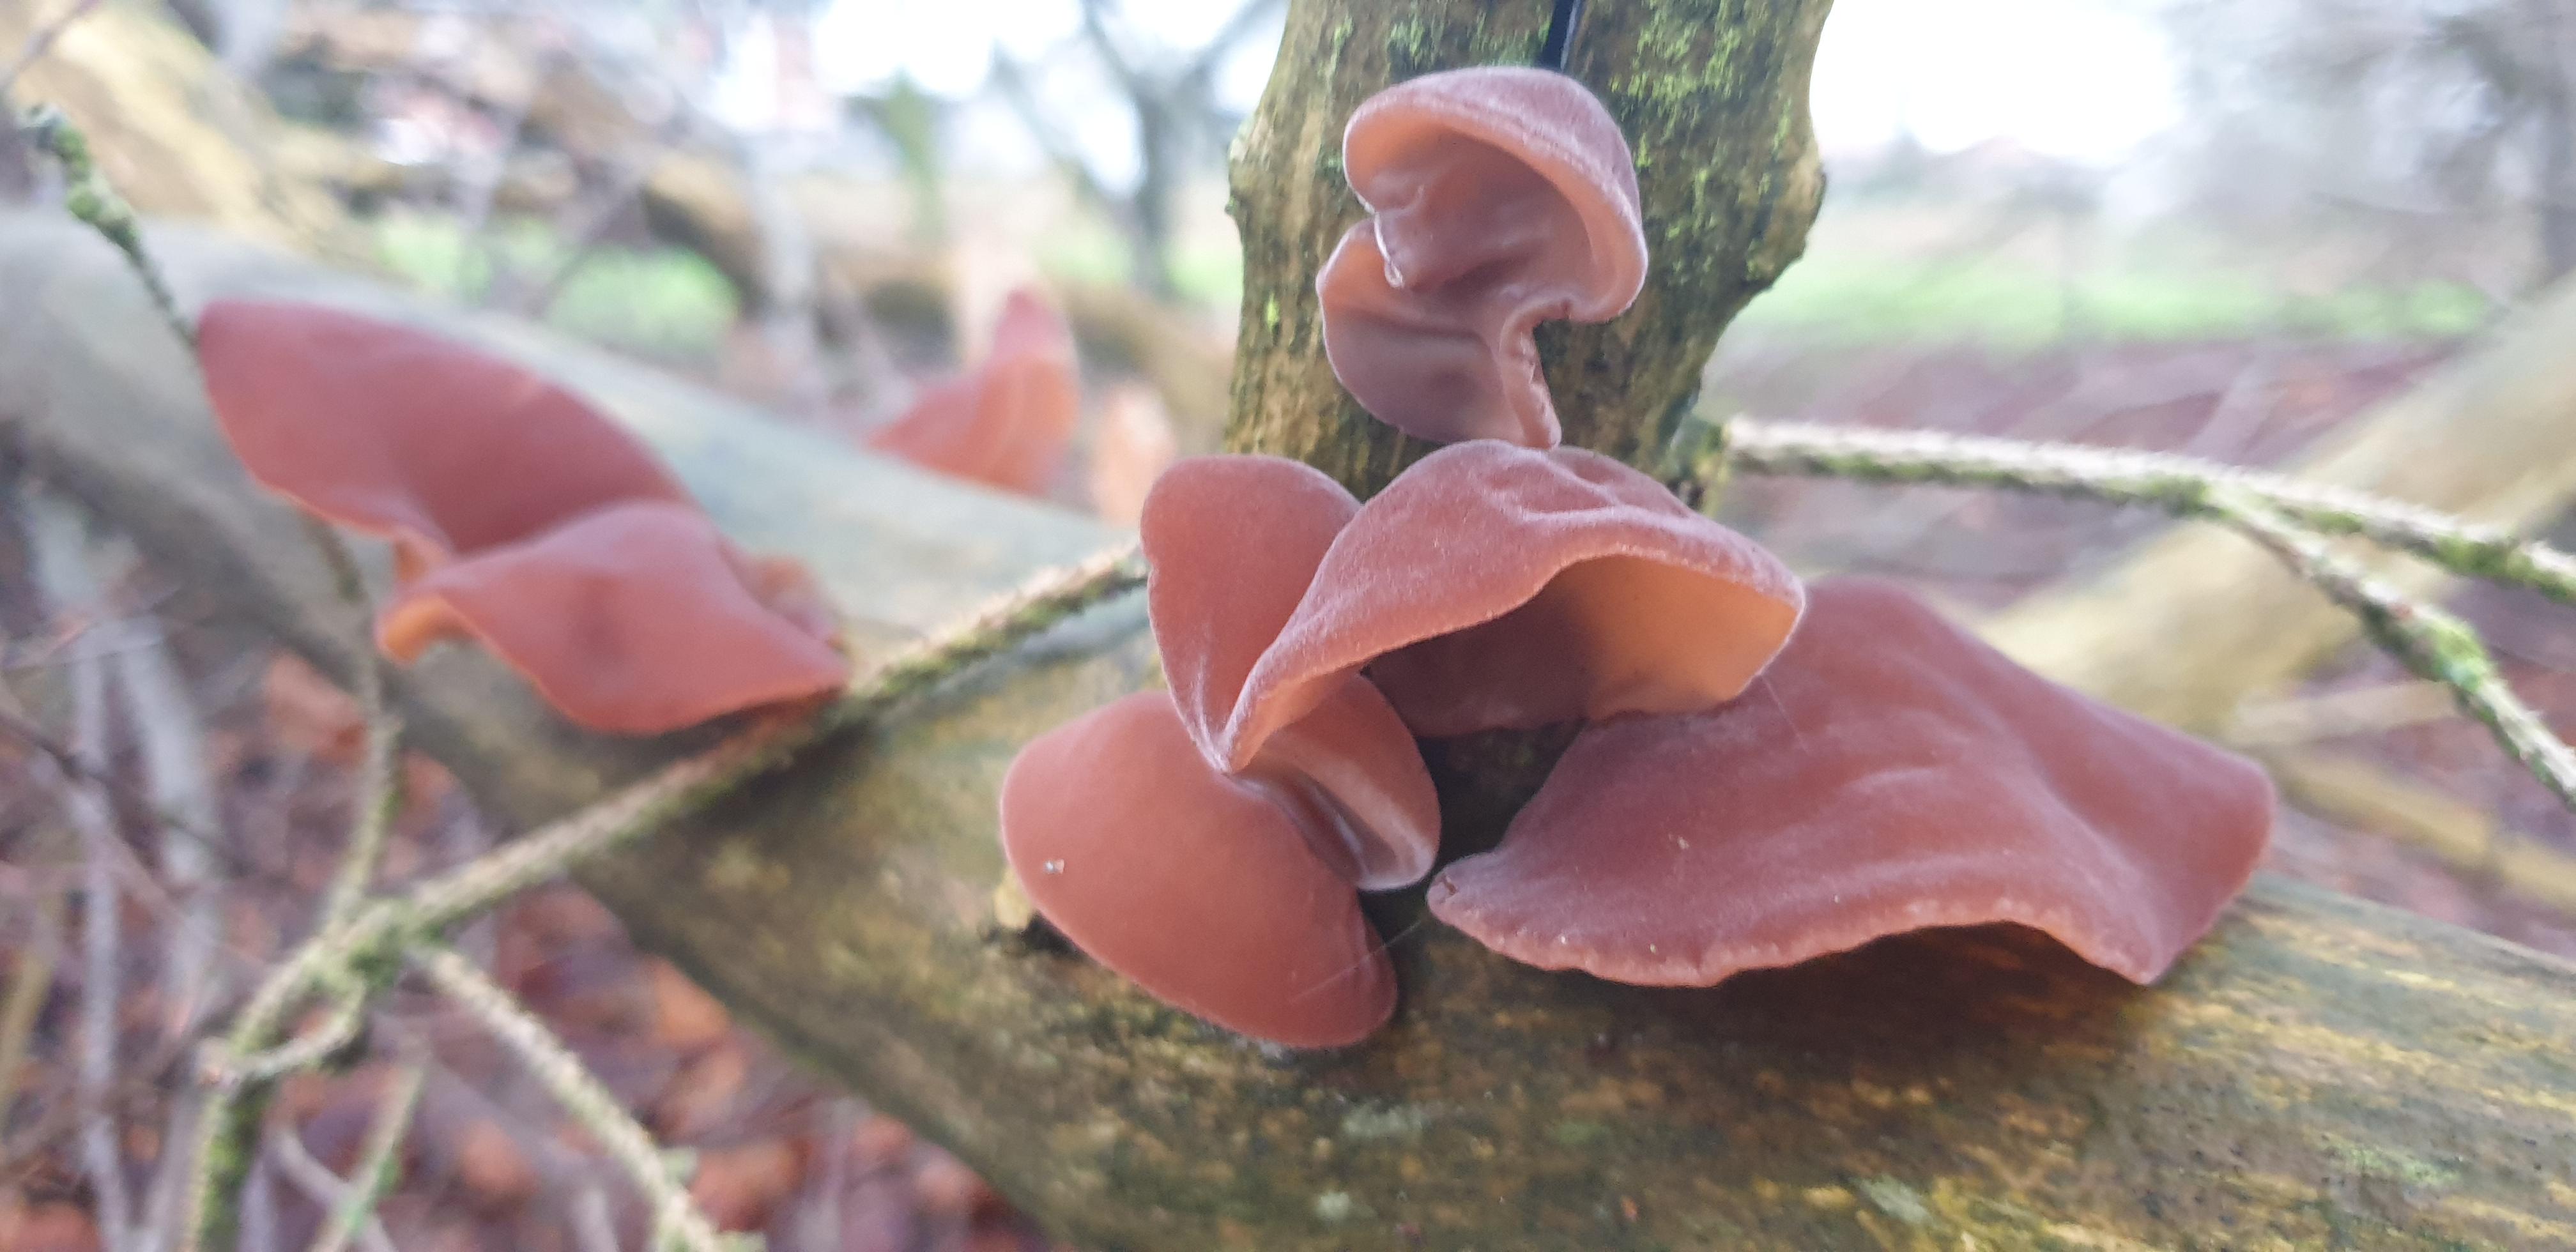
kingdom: Fungi
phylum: Basidiomycota
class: Agaricomycetes
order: Auriculariales
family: Auriculariaceae
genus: Auricularia
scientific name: Auricularia auricula-judae
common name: almindelig judasøre
